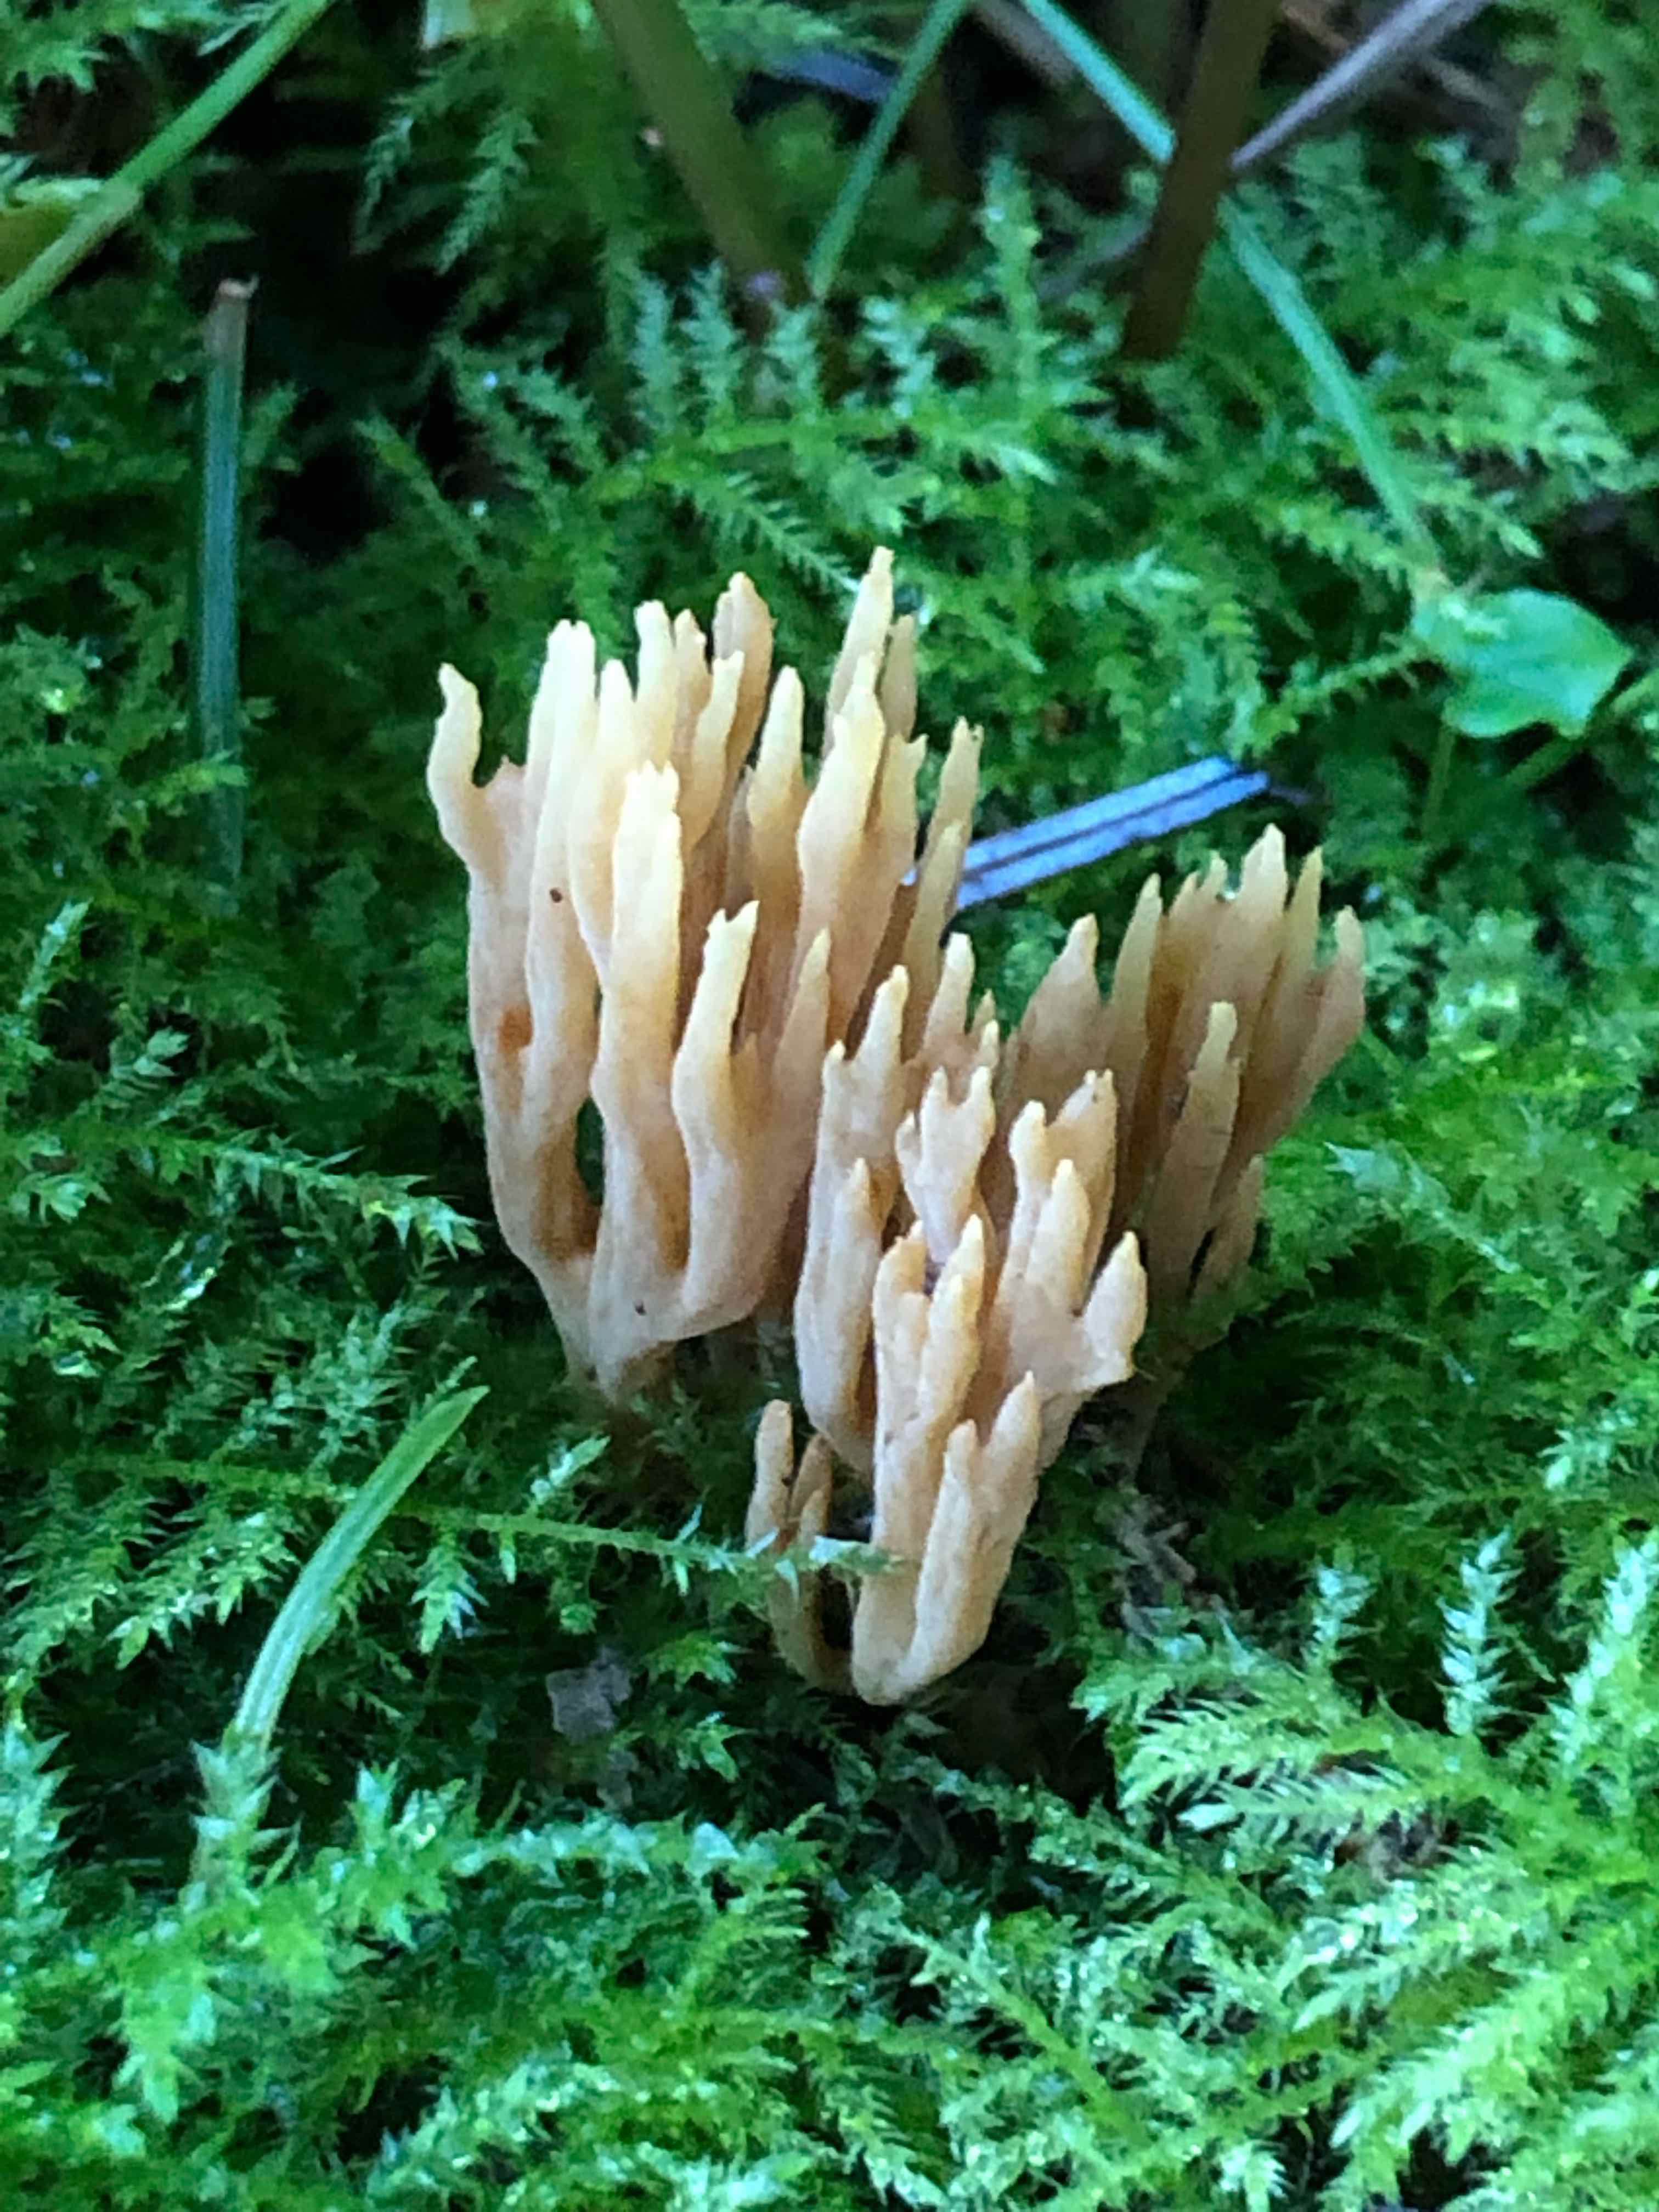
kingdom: Fungi
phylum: Basidiomycota
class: Agaricomycetes
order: Gomphales
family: Gomphaceae
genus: Phaeoclavulina
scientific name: Phaeoclavulina eumorpha
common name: gran-koralsvamp
